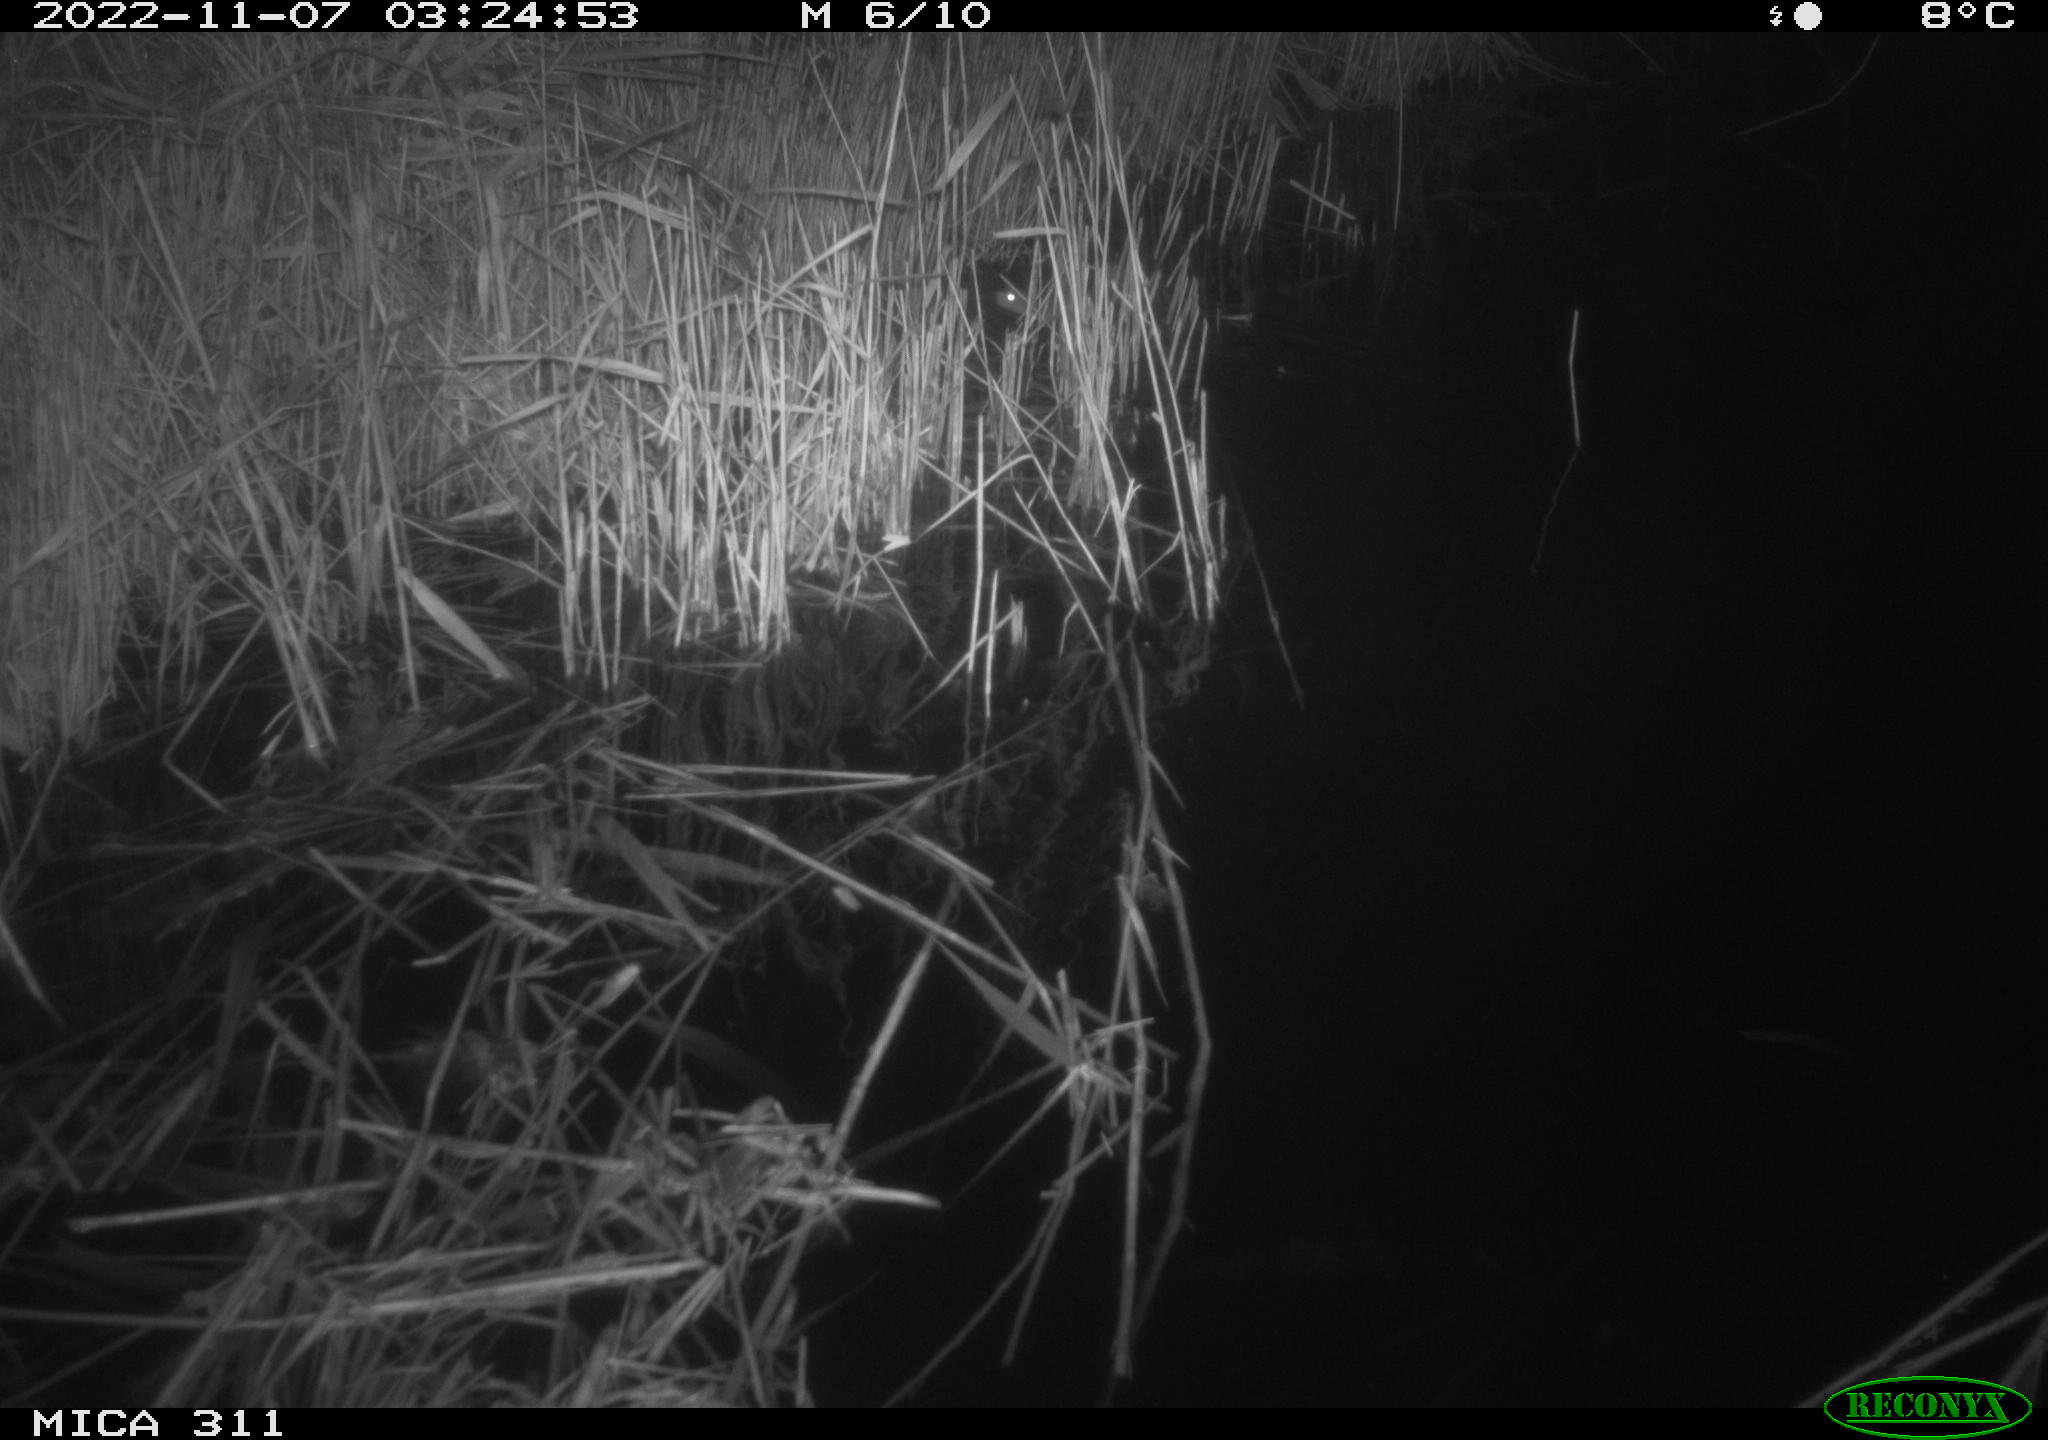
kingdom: Animalia
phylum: Chordata
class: Mammalia
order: Rodentia
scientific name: Rodentia
